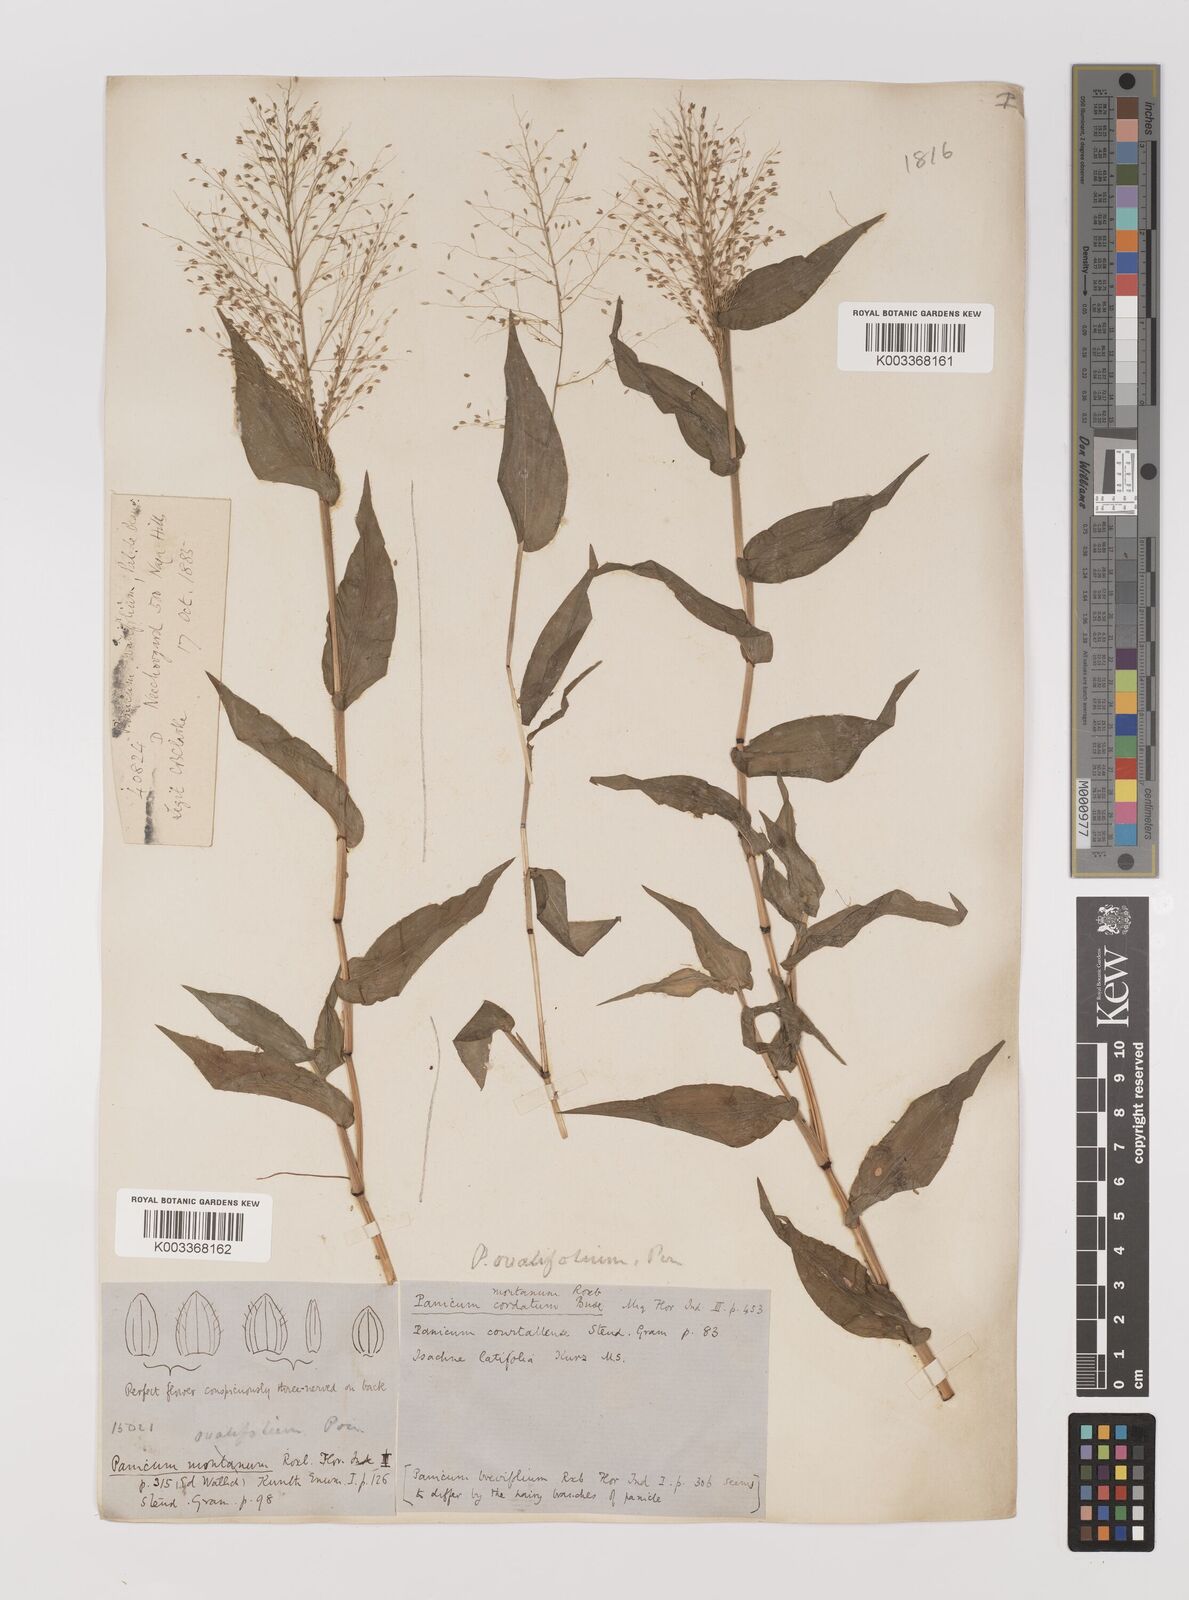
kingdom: Plantae
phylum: Tracheophyta
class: Liliopsida
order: Poales
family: Poaceae
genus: Panicum
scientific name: Panicum brevifolium
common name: Shortleaf panic grass
